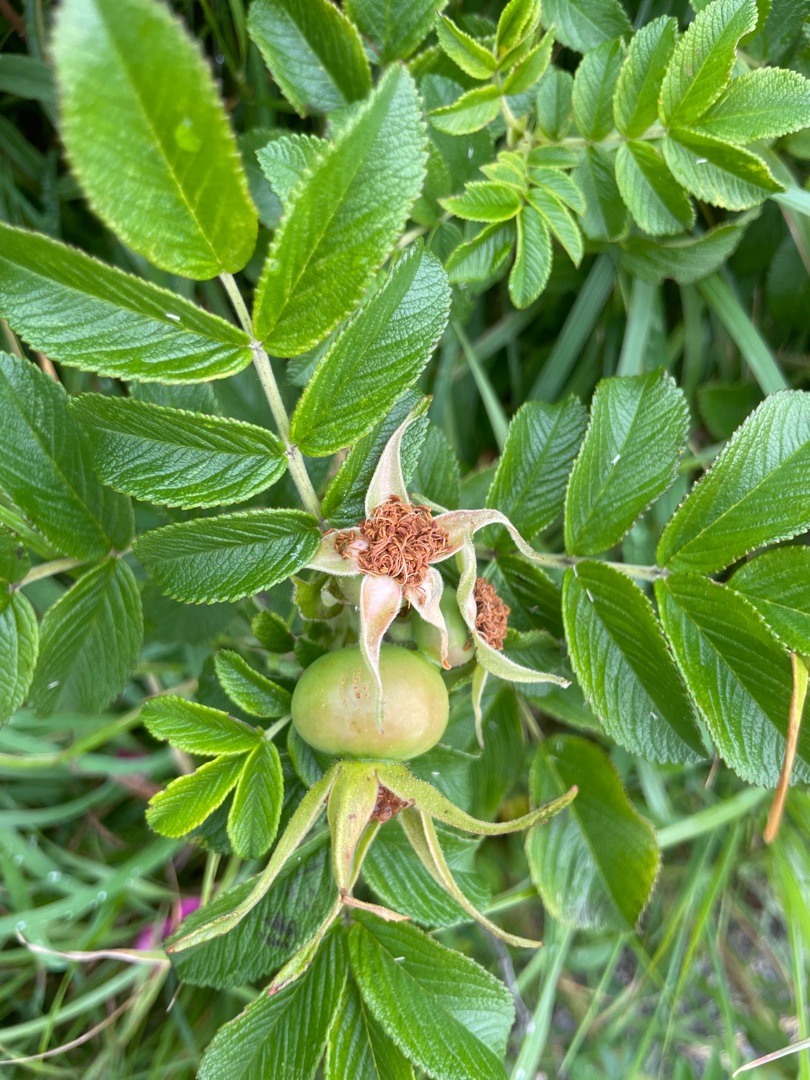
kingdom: Plantae
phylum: Tracheophyta
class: Magnoliopsida
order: Rosales
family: Rosaceae
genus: Rosa
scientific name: Rosa rugosa
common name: Rynket rose
